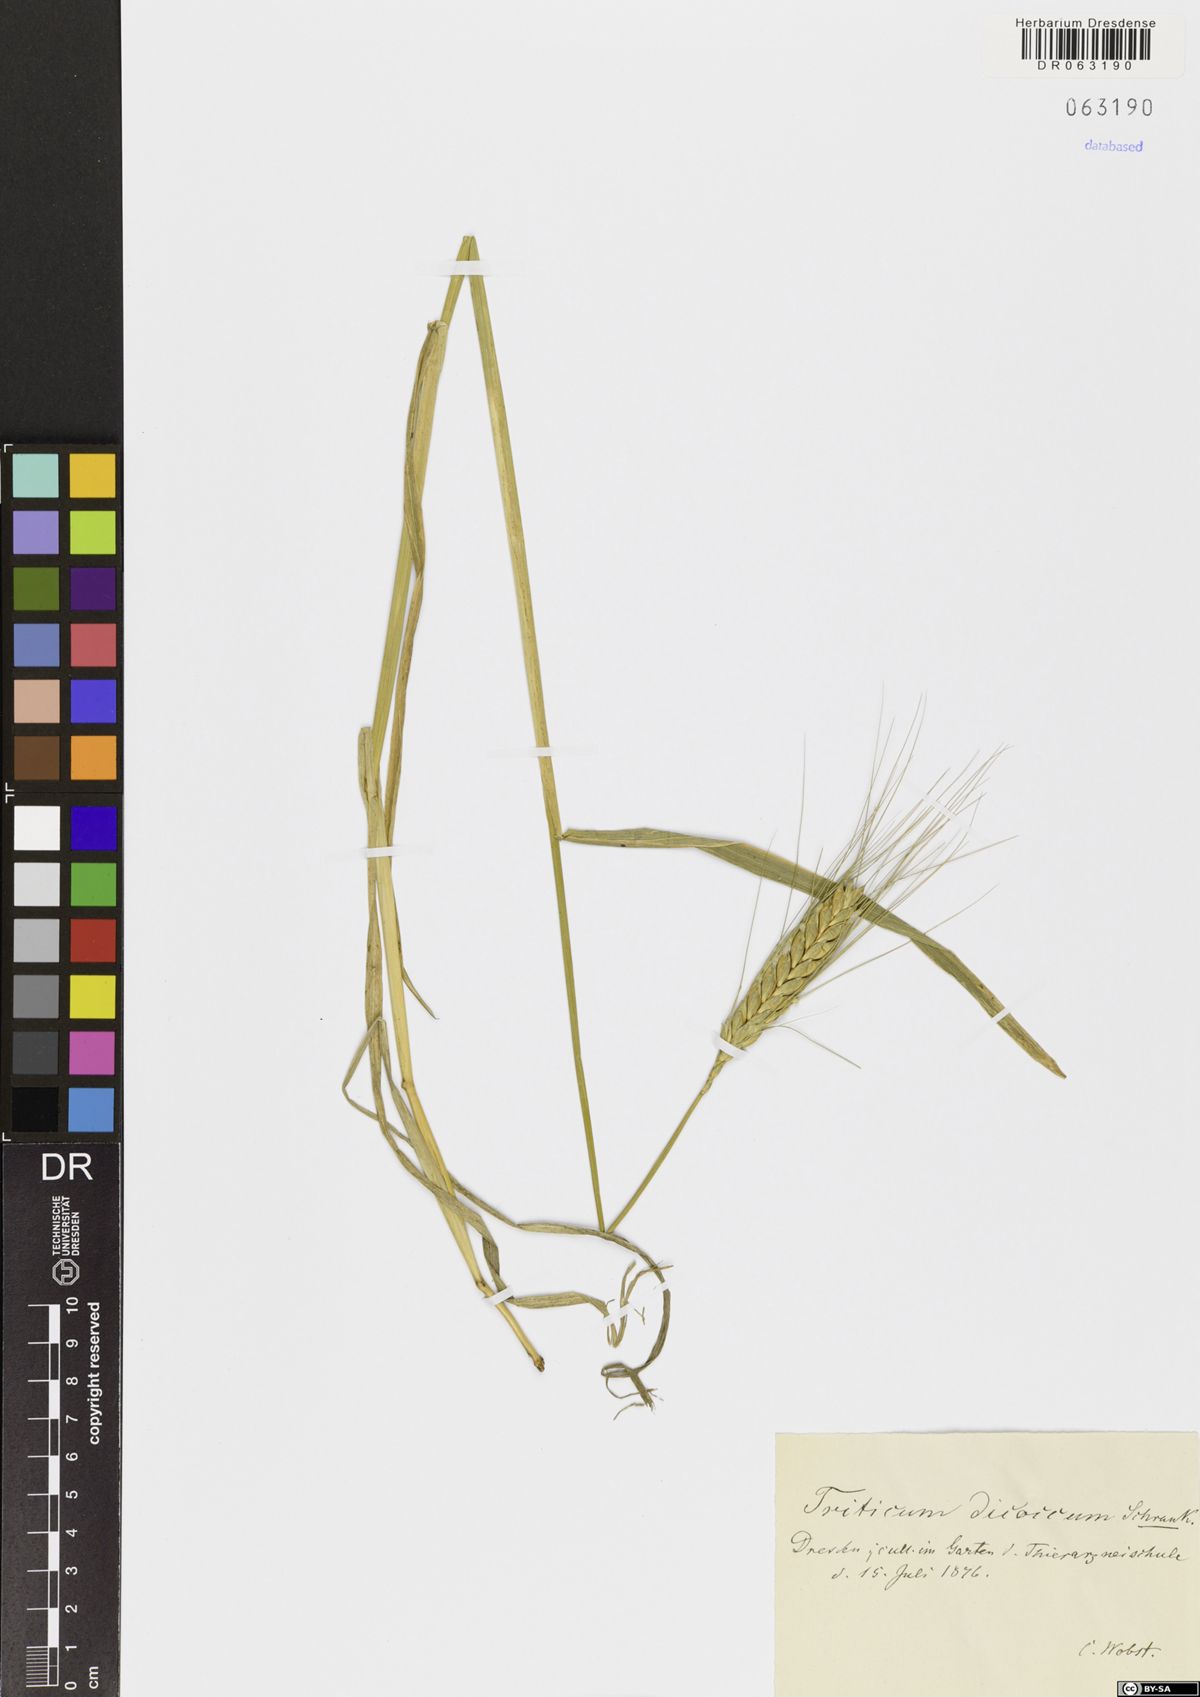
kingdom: Plantae
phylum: Tracheophyta
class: Liliopsida
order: Poales
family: Poaceae
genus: Triticum
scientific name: Triticum turgidum
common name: Rivet wheat
